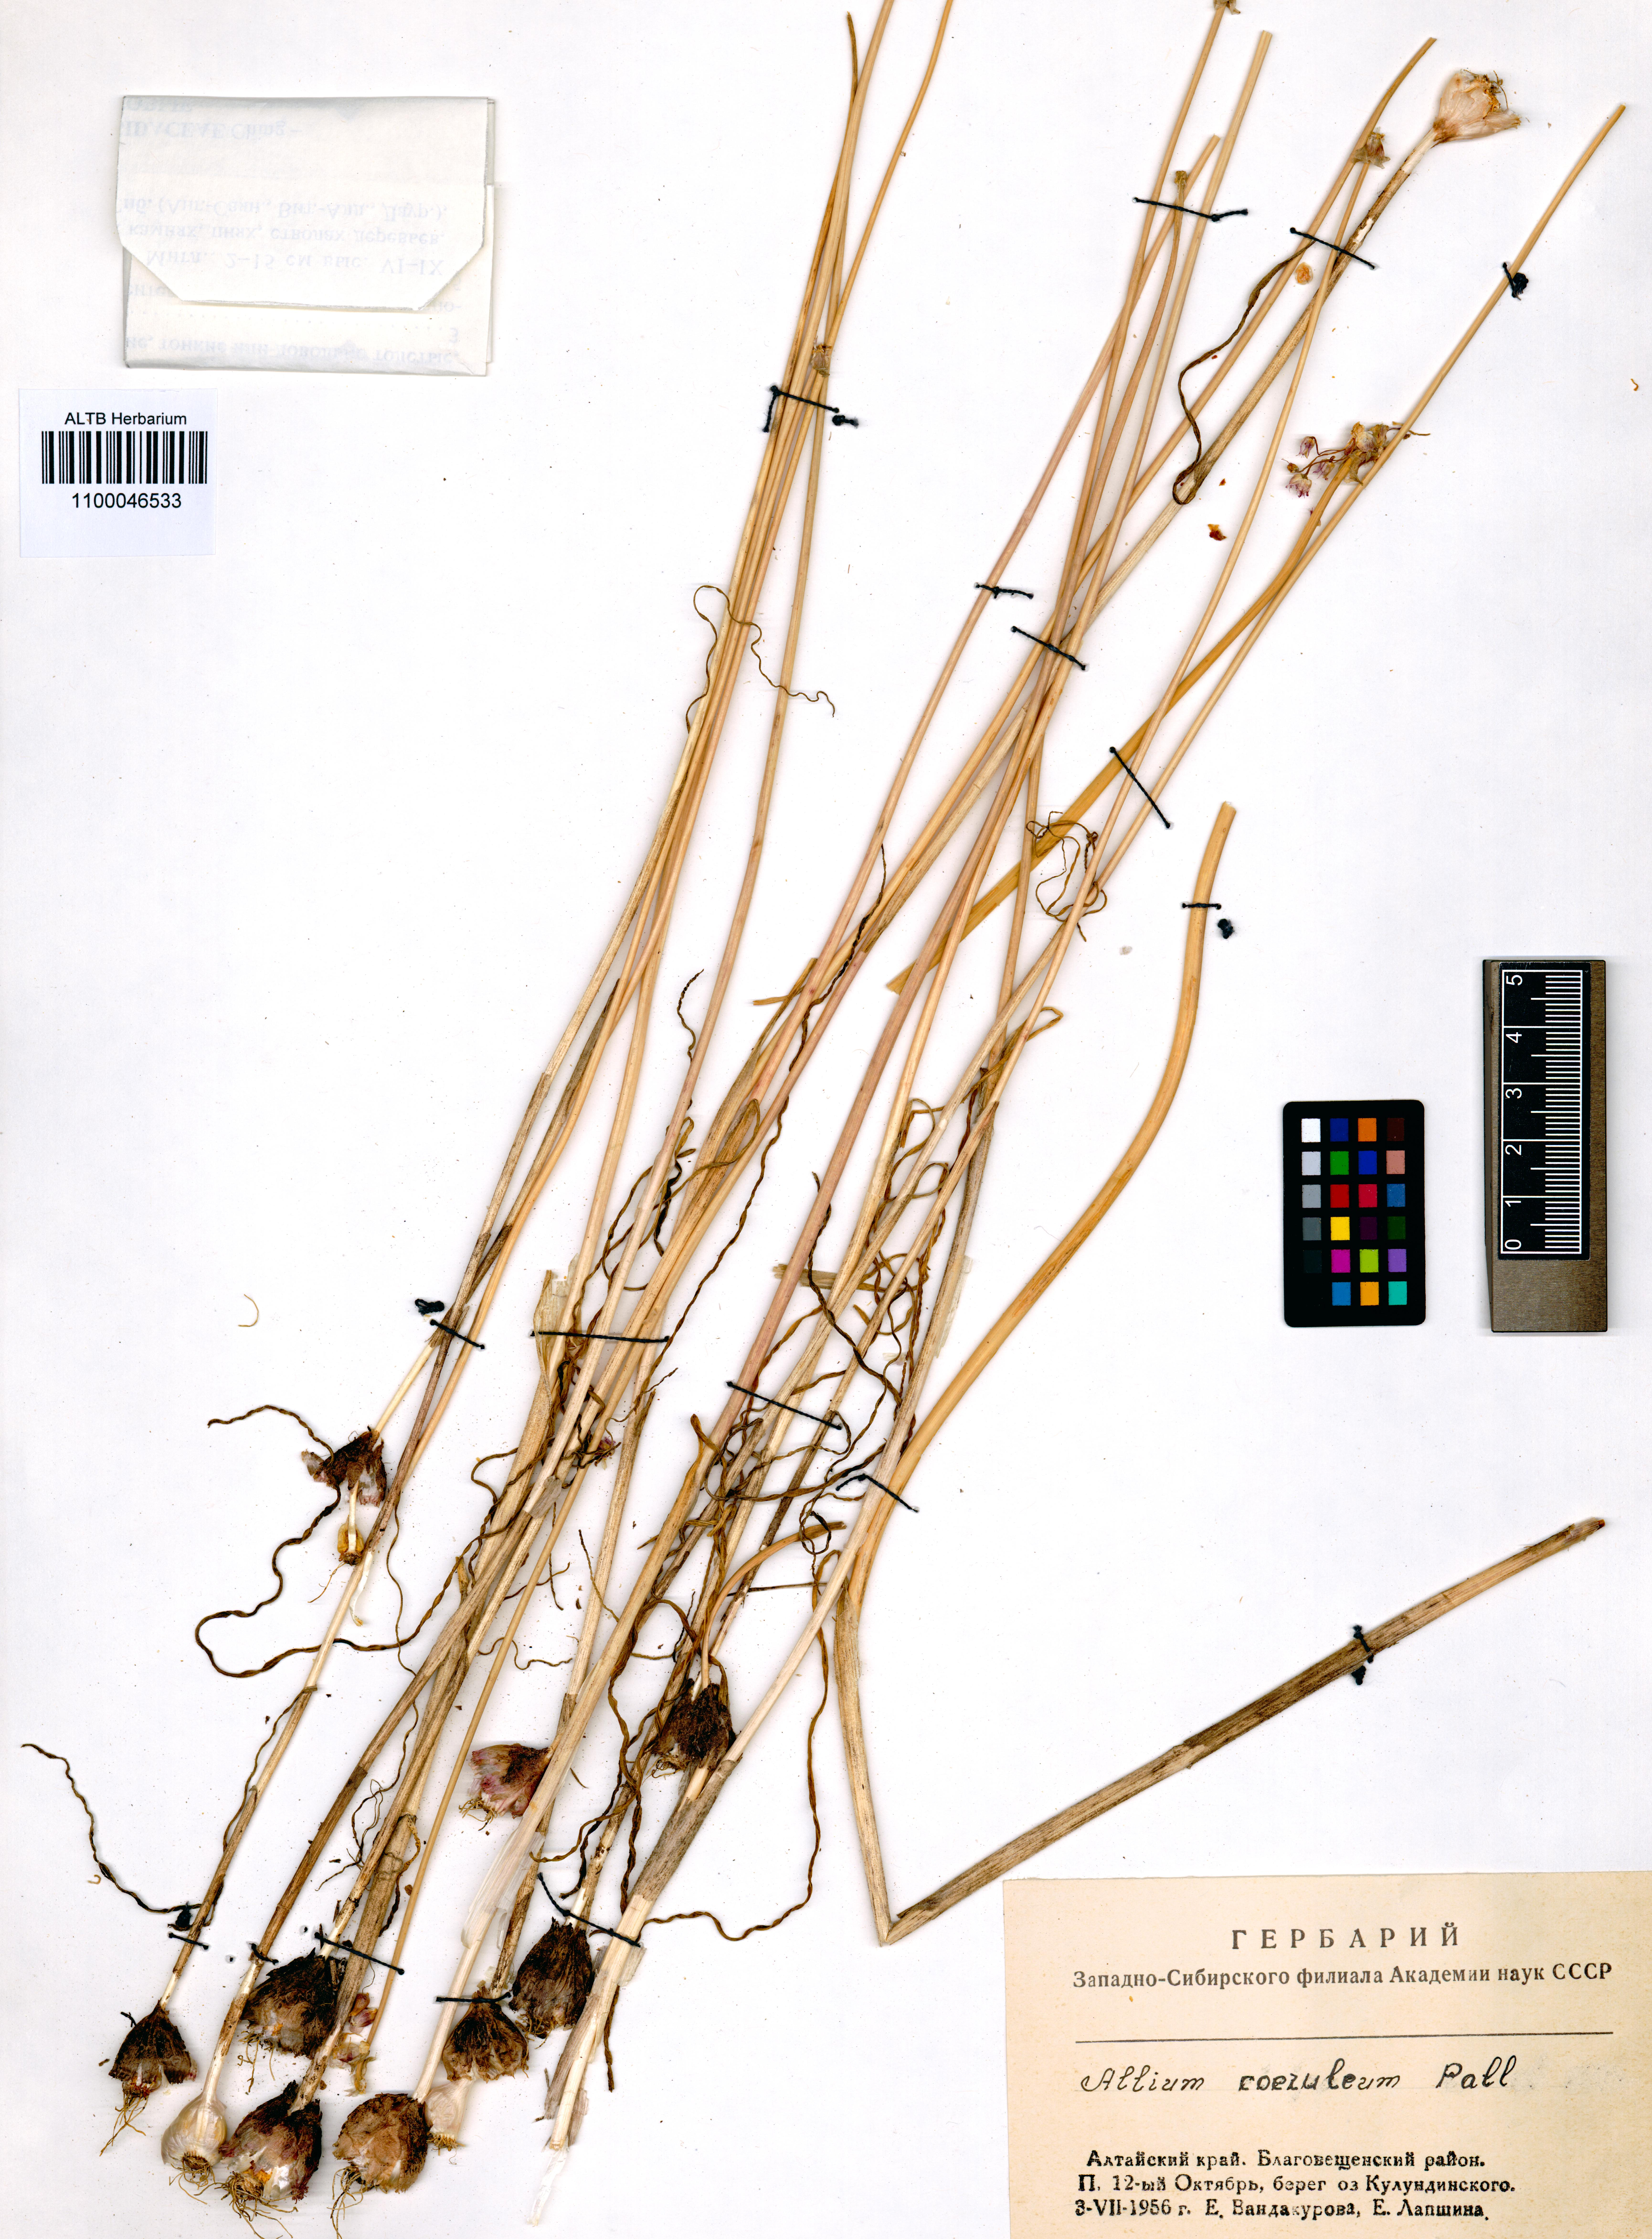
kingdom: Plantae
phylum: Tracheophyta
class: Liliopsida
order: Asparagales
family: Amaryllidaceae
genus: Allium
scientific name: Allium caeruleum
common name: Blue-of-the-heavens
